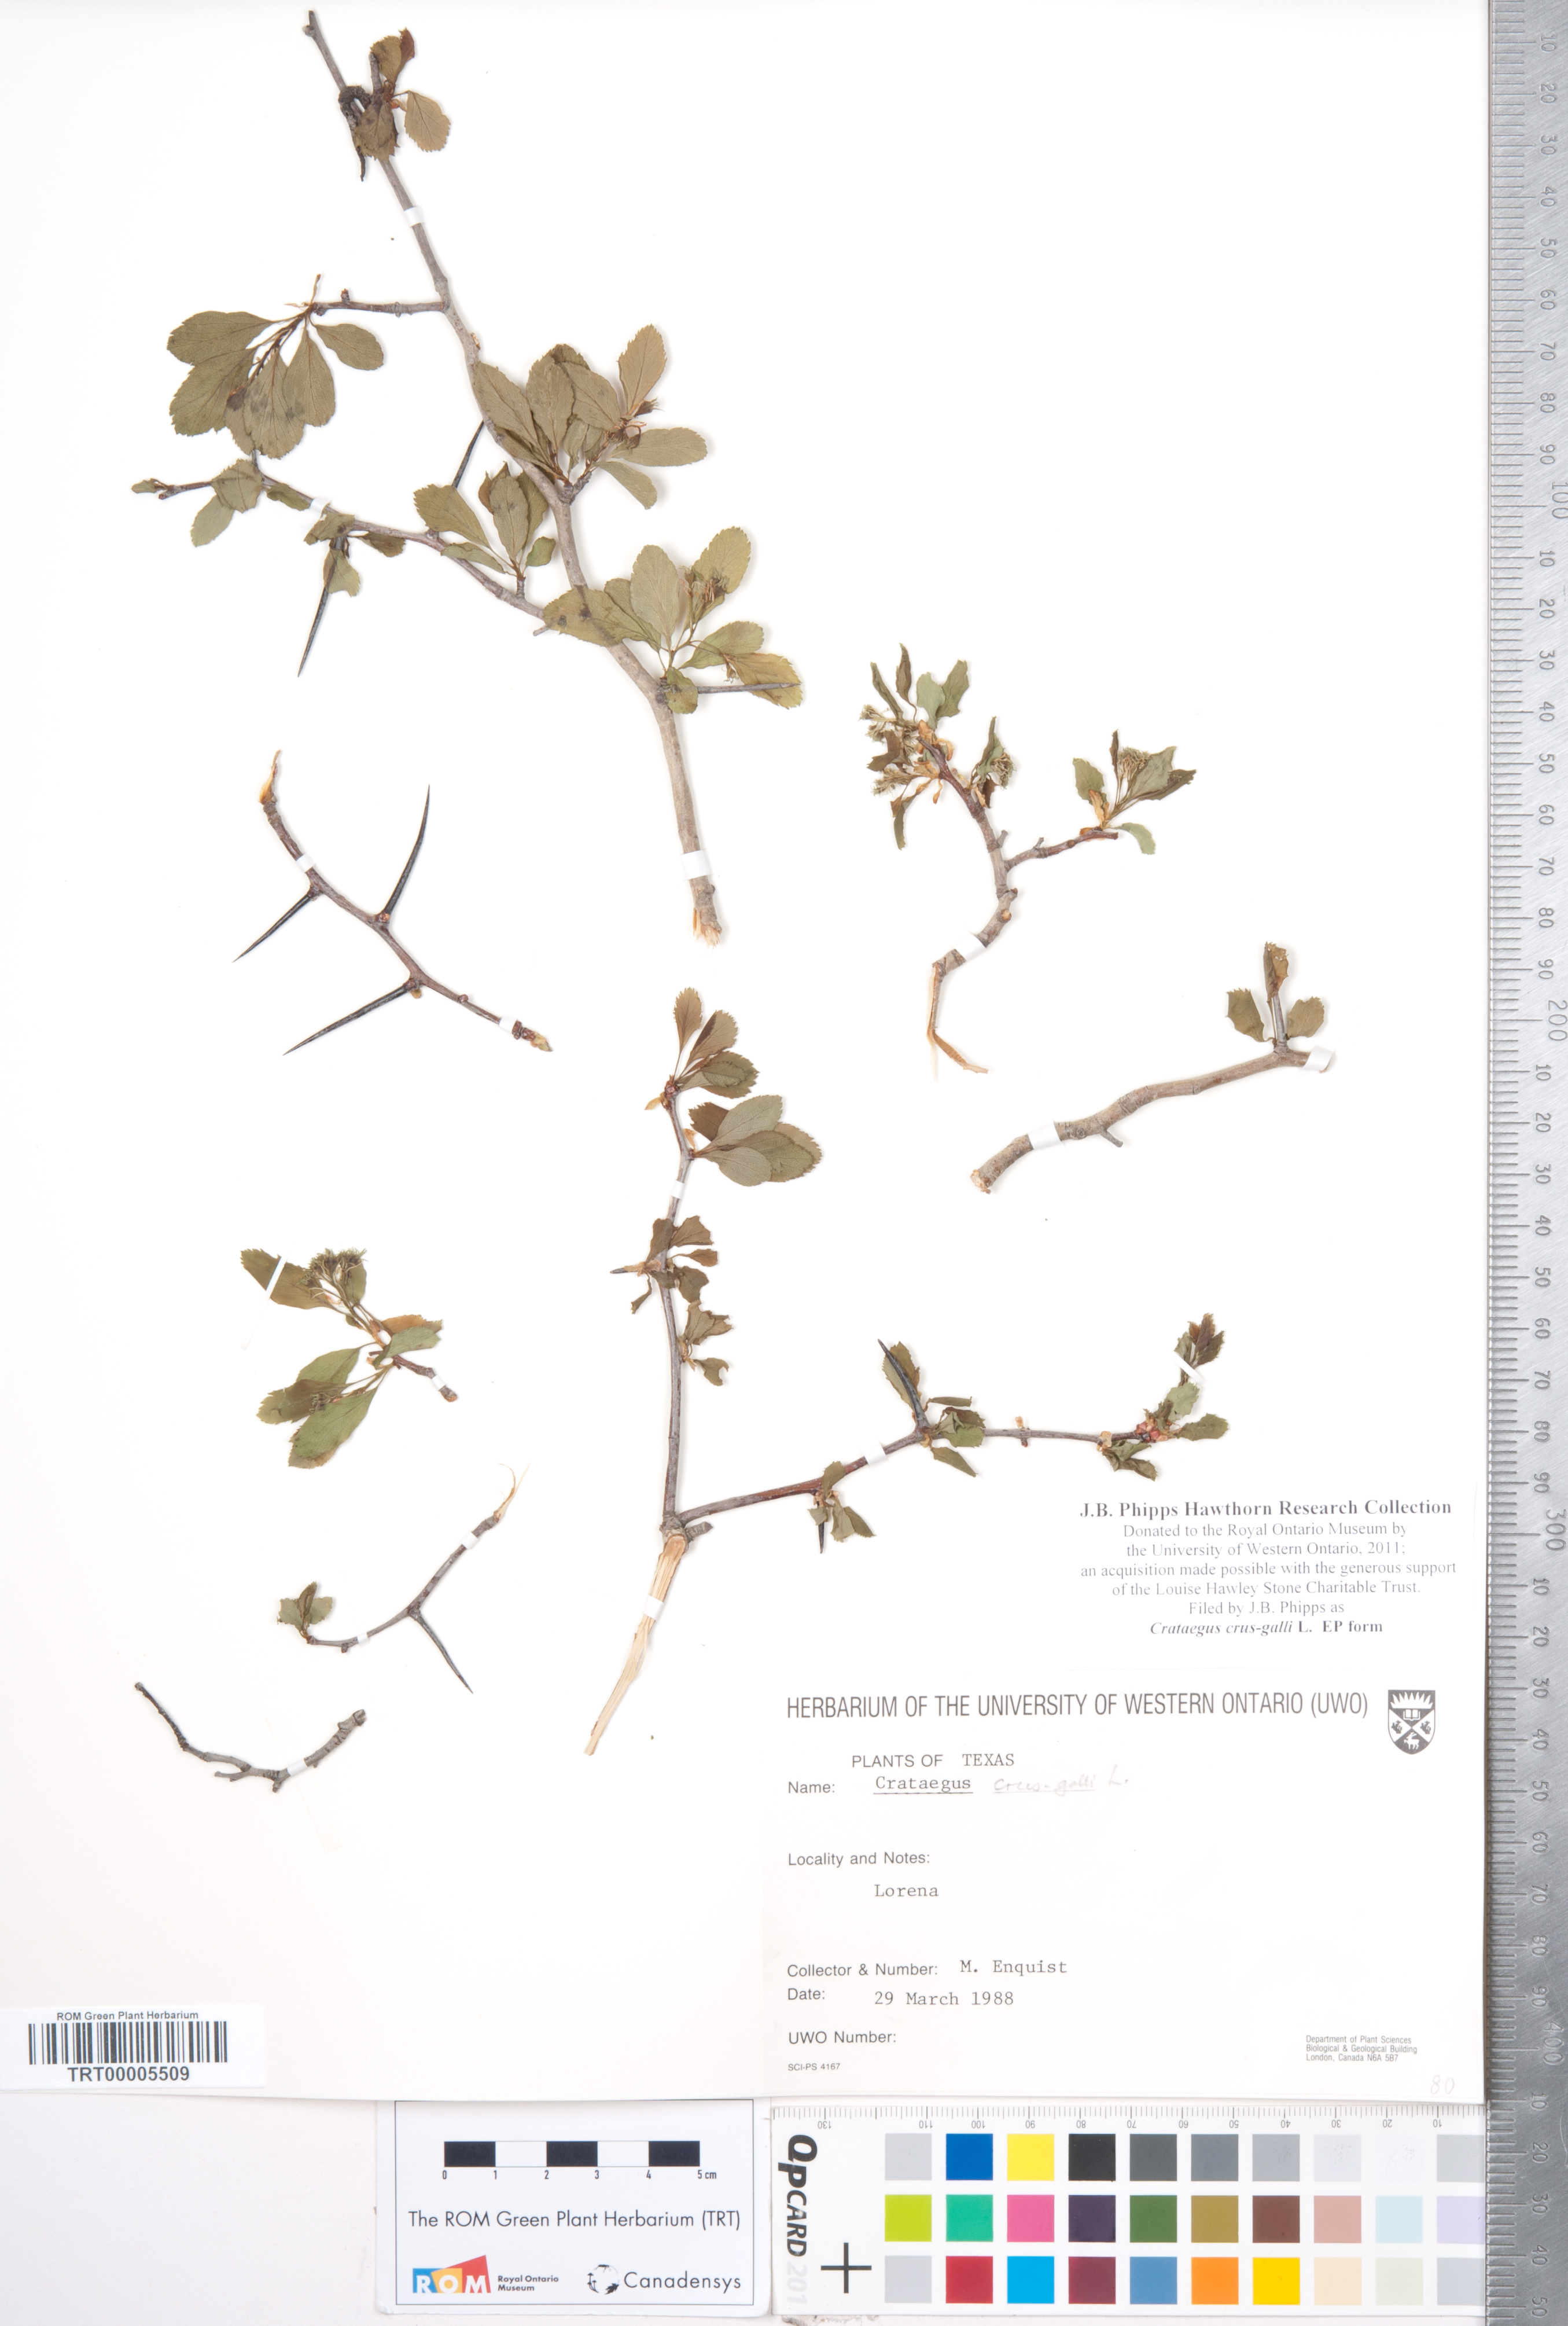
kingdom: Plantae
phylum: Tracheophyta
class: Magnoliopsida
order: Rosales
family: Rosaceae
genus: Crataegus
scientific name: Crataegus crus-galli
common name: Cockspurthorn
